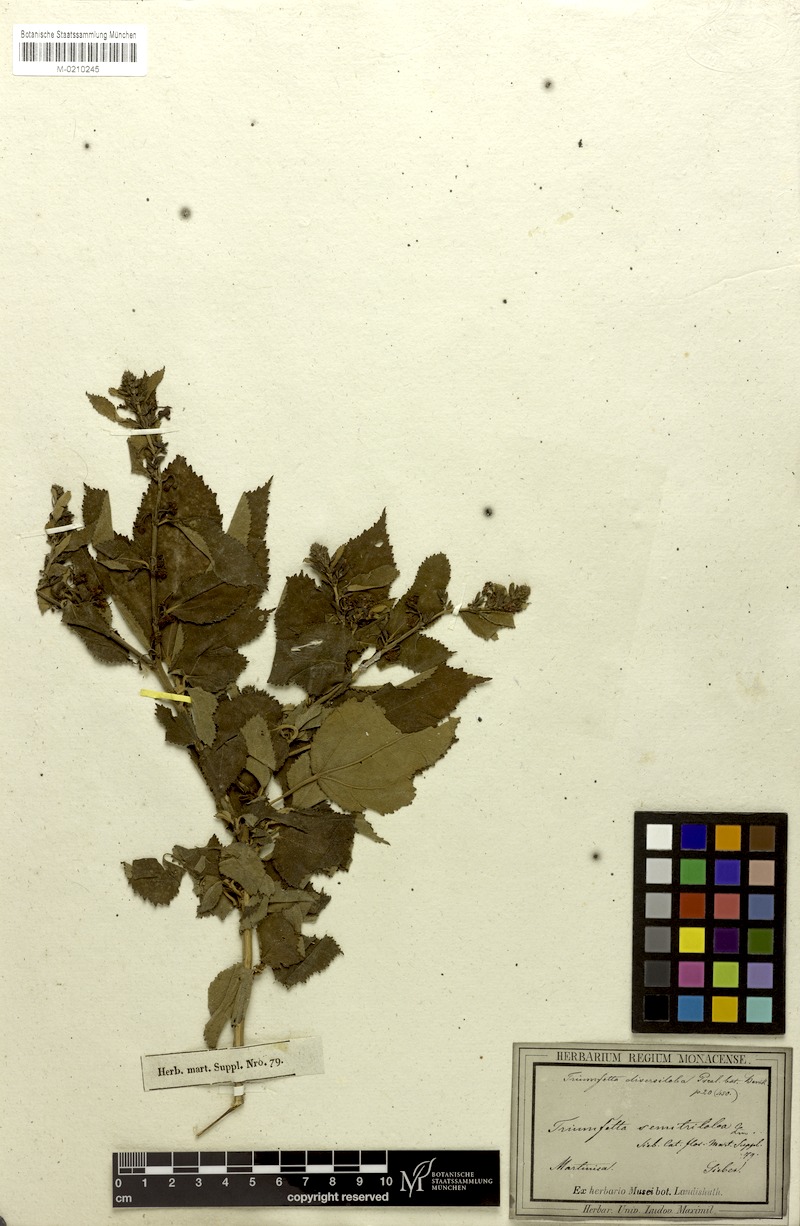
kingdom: Plantae
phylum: Tracheophyta
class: Magnoliopsida
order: Malvales
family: Malvaceae
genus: Triumfetta
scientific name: Triumfetta grandiflora
